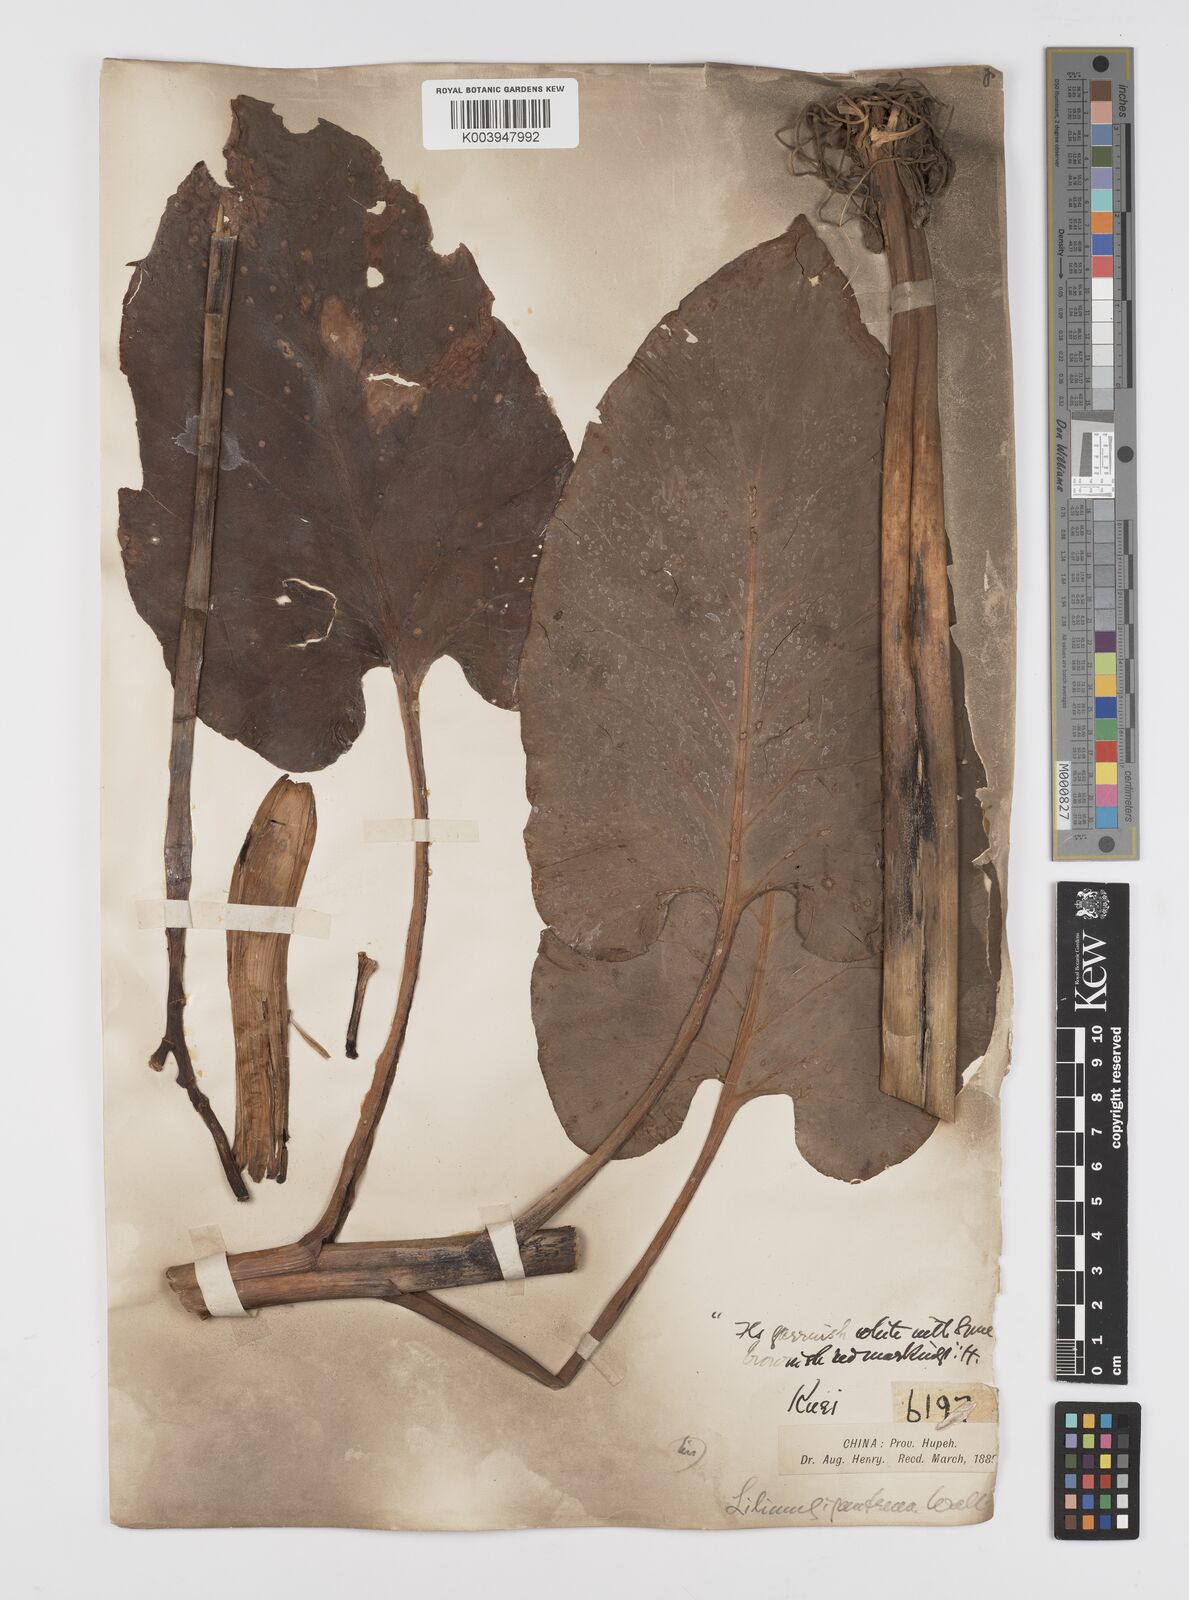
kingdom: Plantae
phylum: Tracheophyta
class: Liliopsida
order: Liliales
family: Liliaceae
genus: Cardiocrinum
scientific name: Cardiocrinum cathayanum
